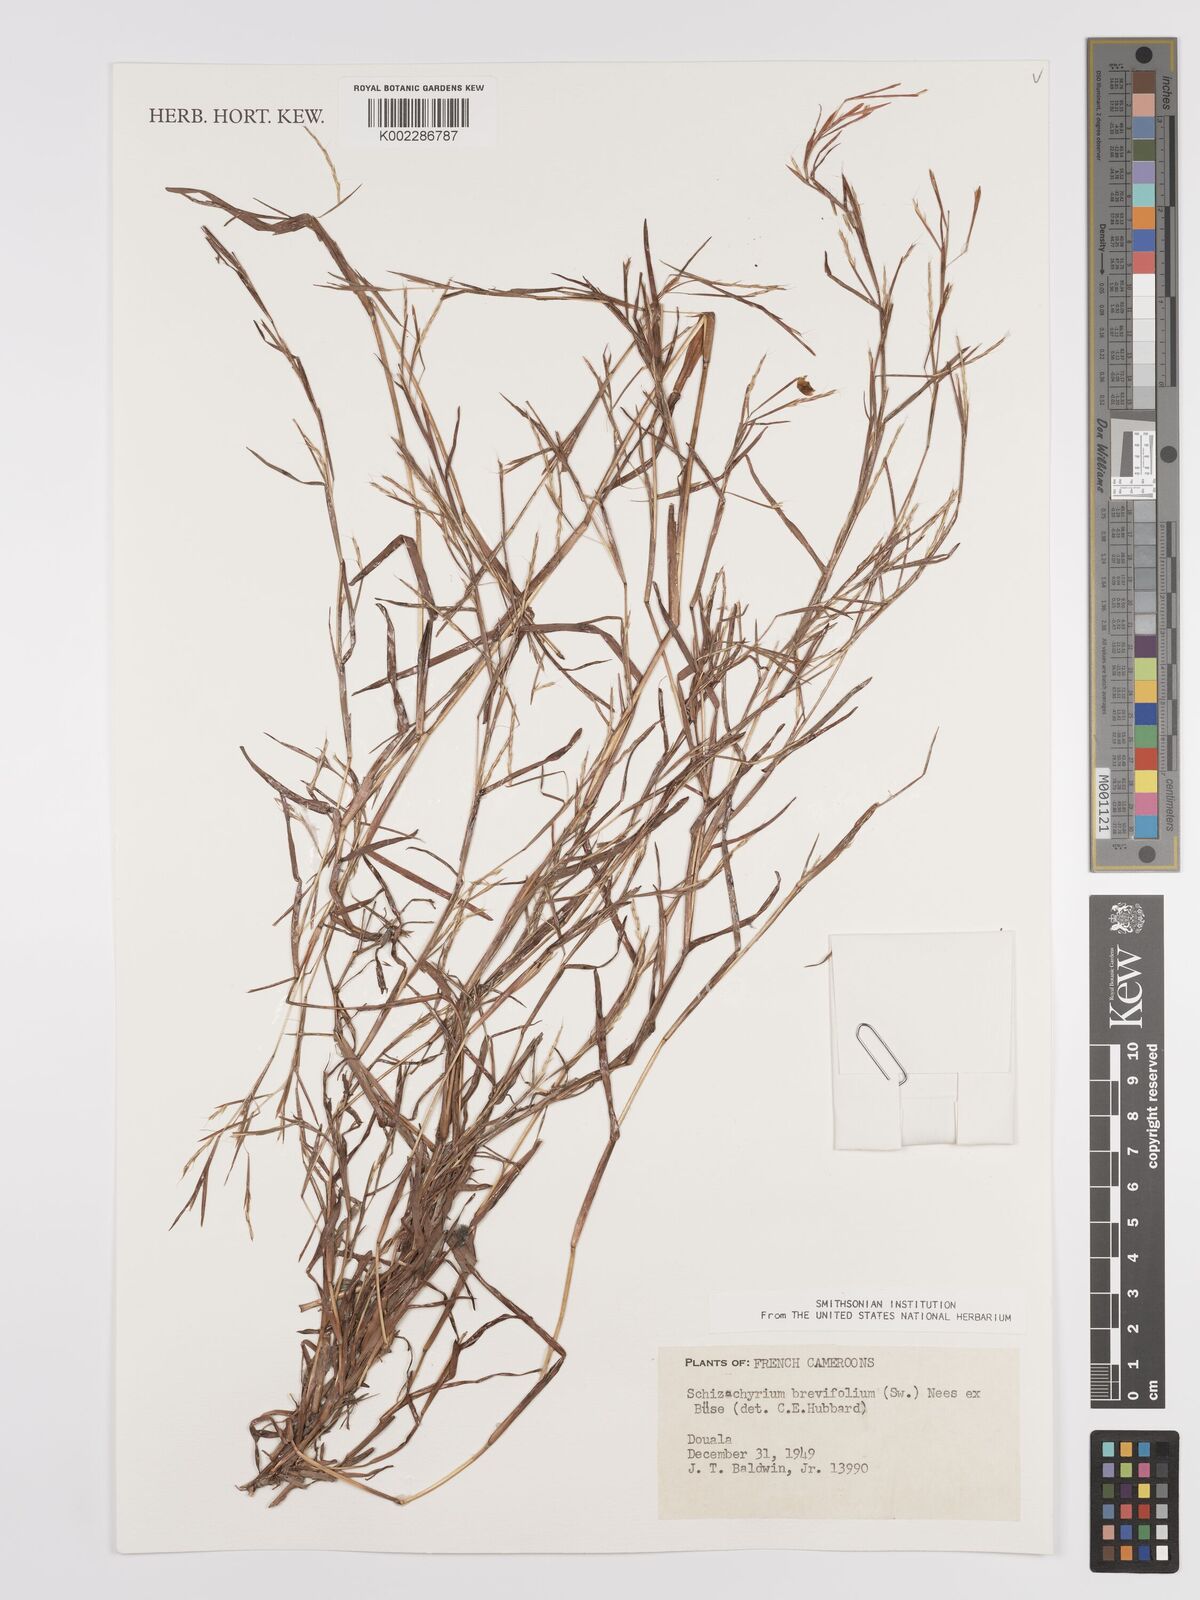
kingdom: Plantae
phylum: Tracheophyta
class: Liliopsida
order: Poales
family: Poaceae
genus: Schizachyrium
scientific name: Schizachyrium brevifolium
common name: Serillo dulce
